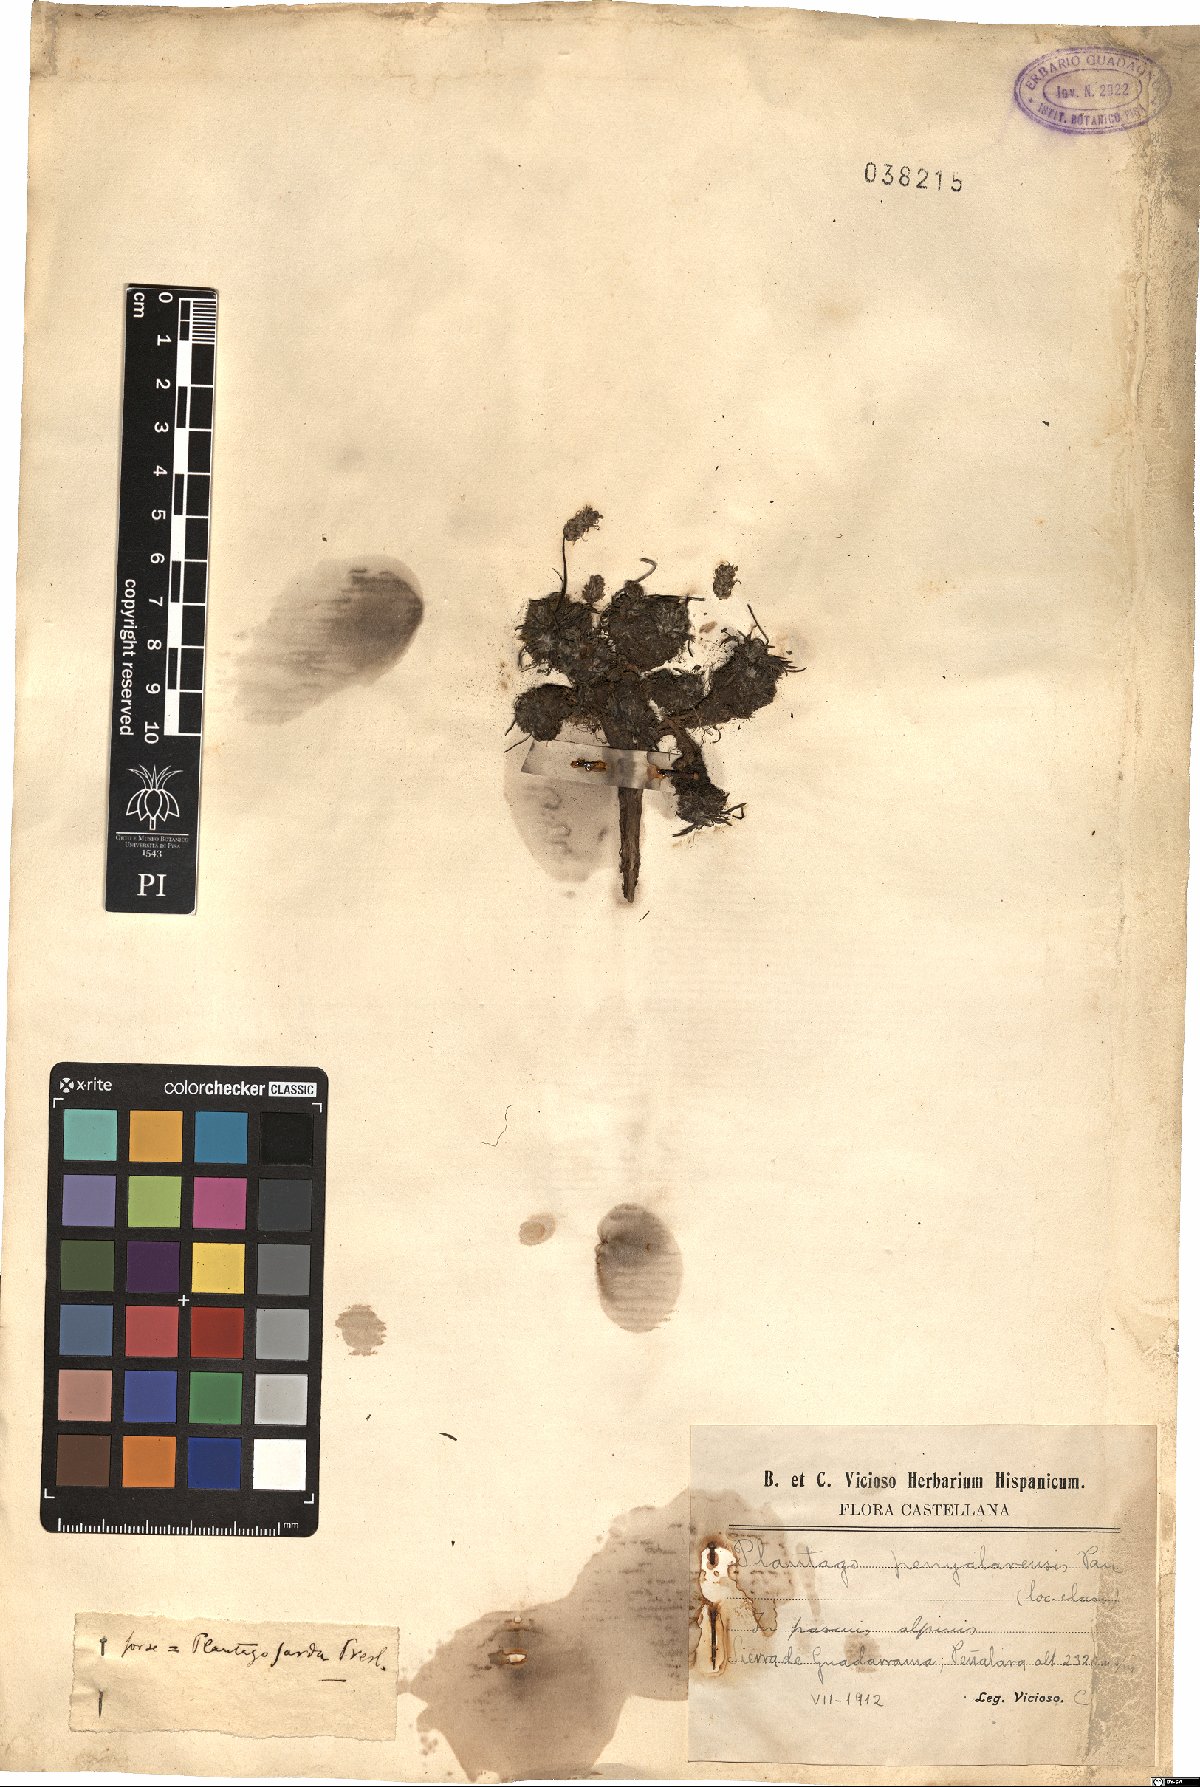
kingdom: Plantae
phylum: Tracheophyta
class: Magnoliopsida
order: Lamiales
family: Plantaginaceae
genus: Plantago
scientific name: Plantago subulata
